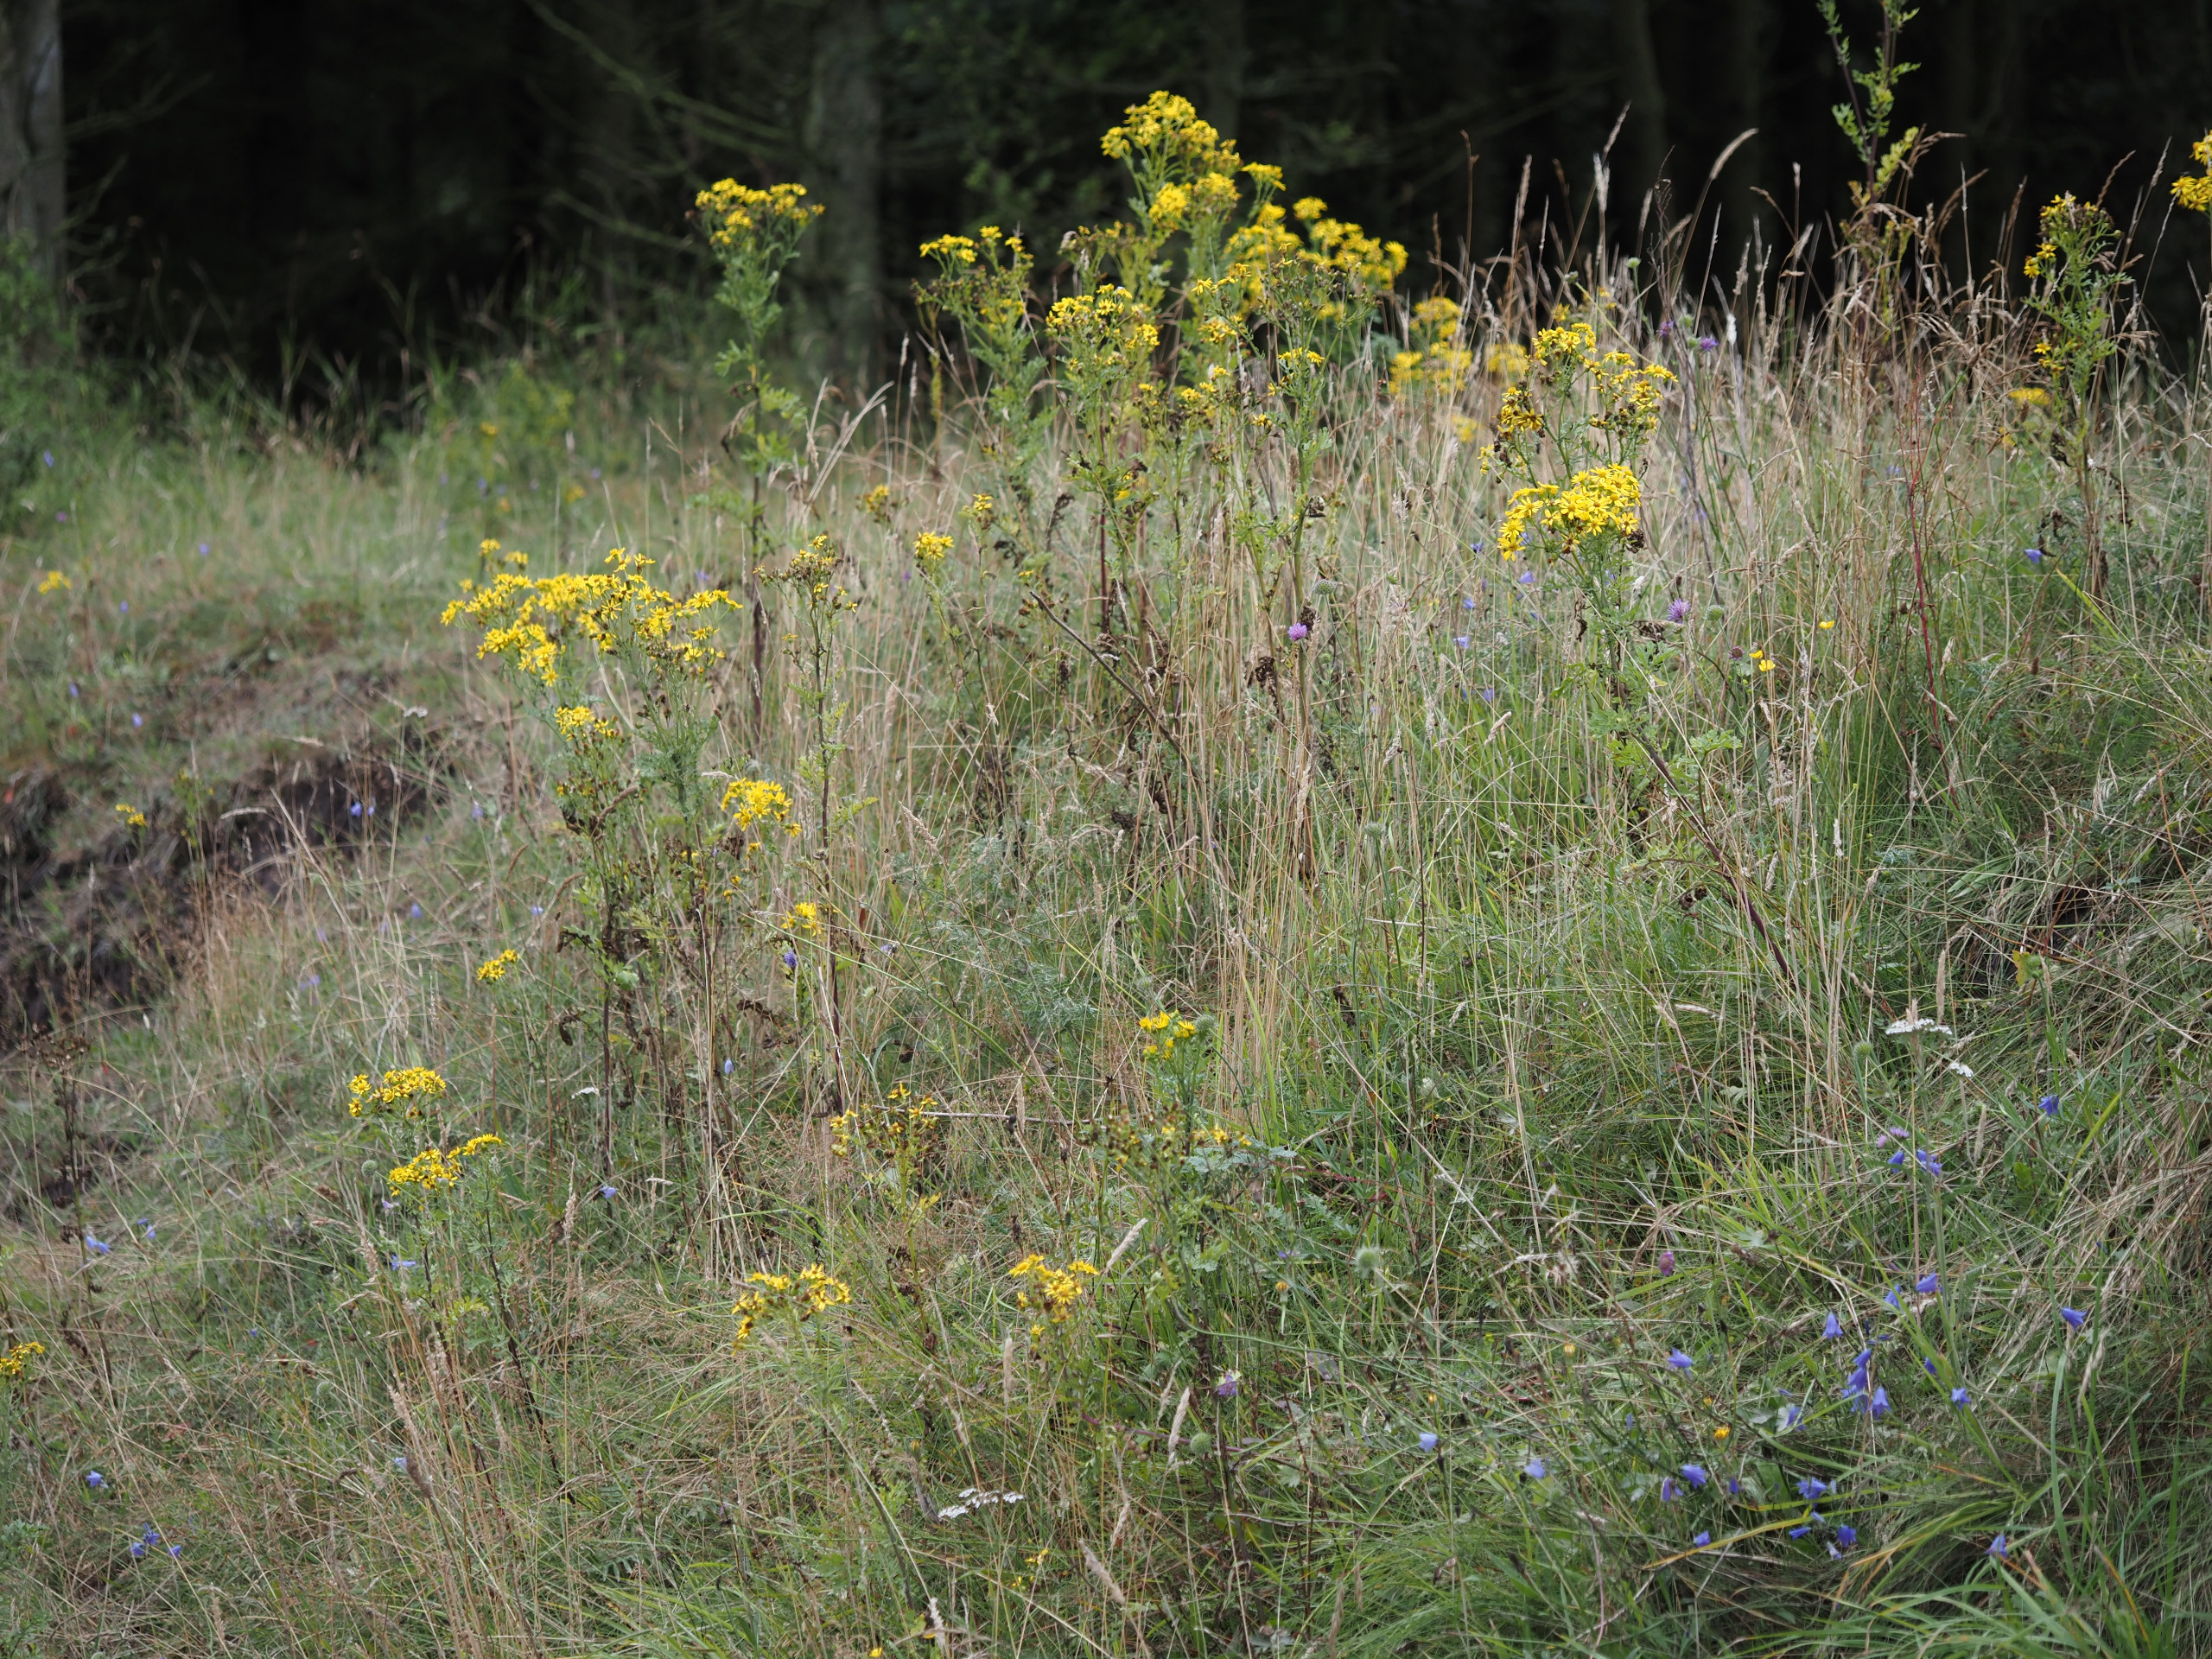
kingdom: Plantae
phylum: Tracheophyta
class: Magnoliopsida
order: Asterales
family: Asteraceae
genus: Jacobaea
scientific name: Jacobaea vulgaris
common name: Eng-brandbæger
